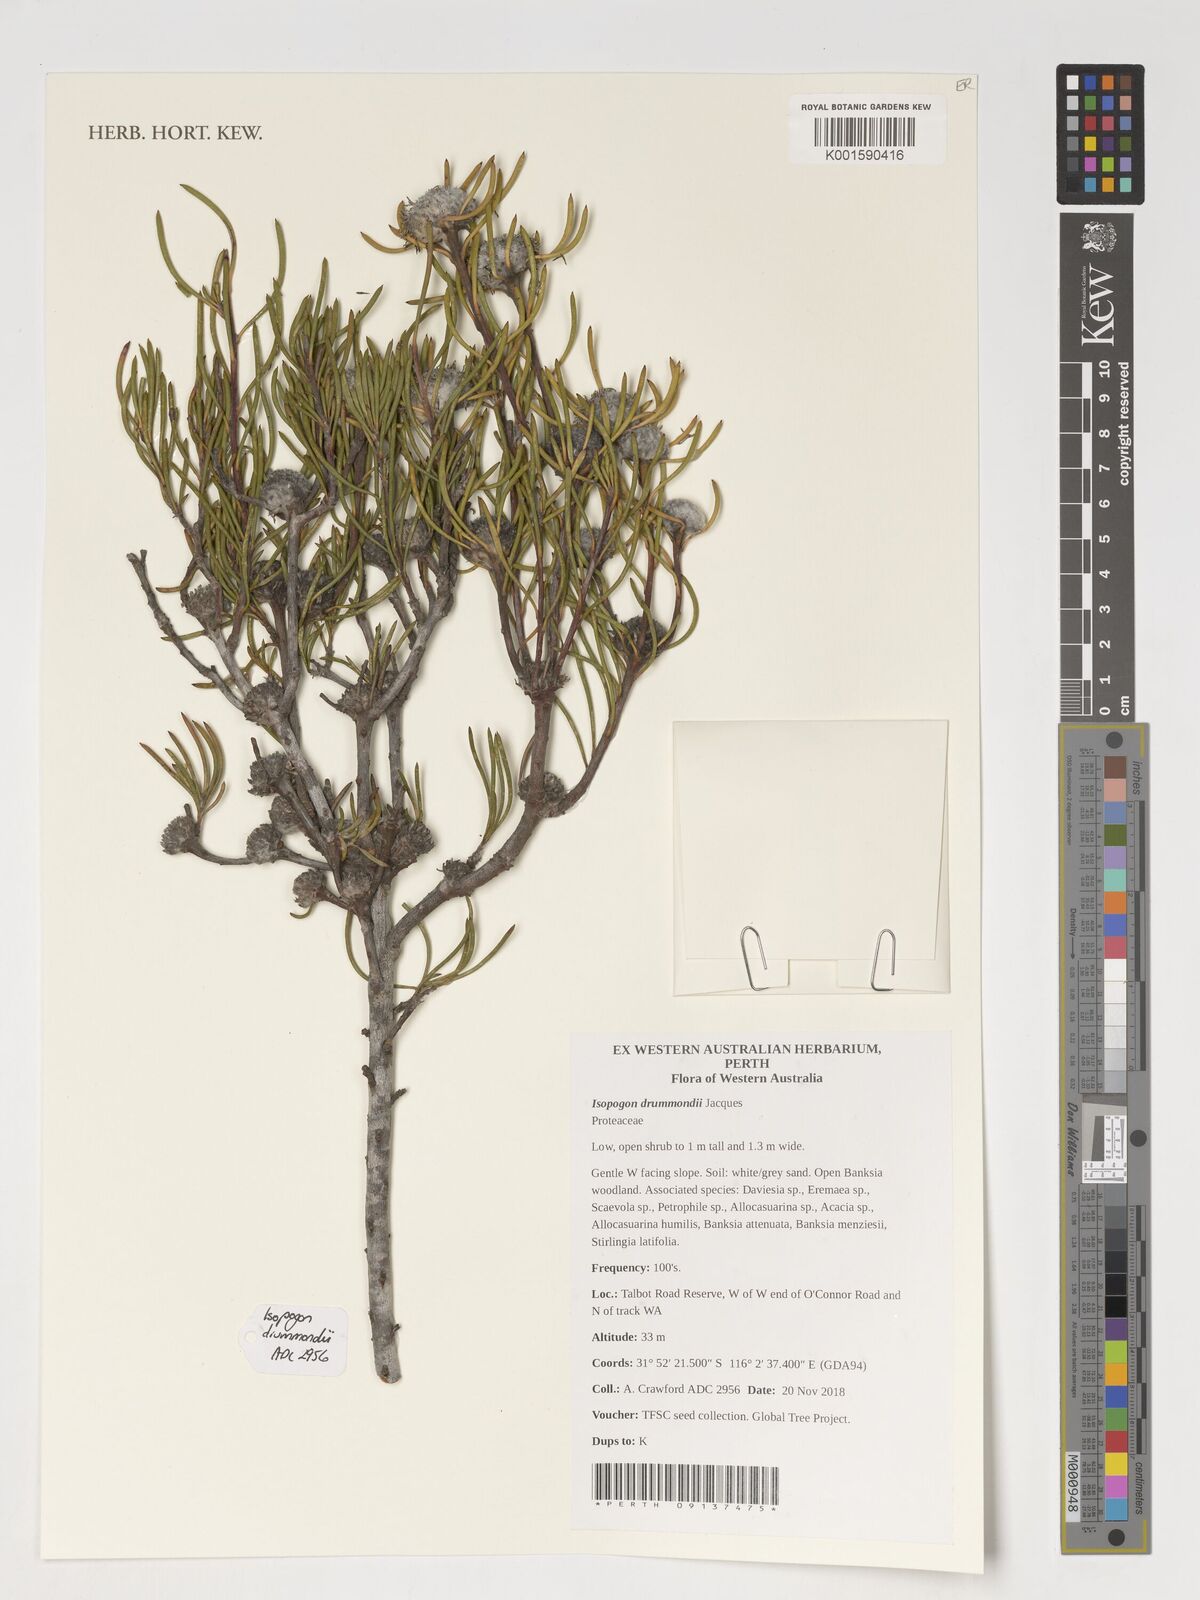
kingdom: Plantae
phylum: Tracheophyta
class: Magnoliopsida
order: Proteales
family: Proteaceae
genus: Isopogon
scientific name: Isopogon drummondii
